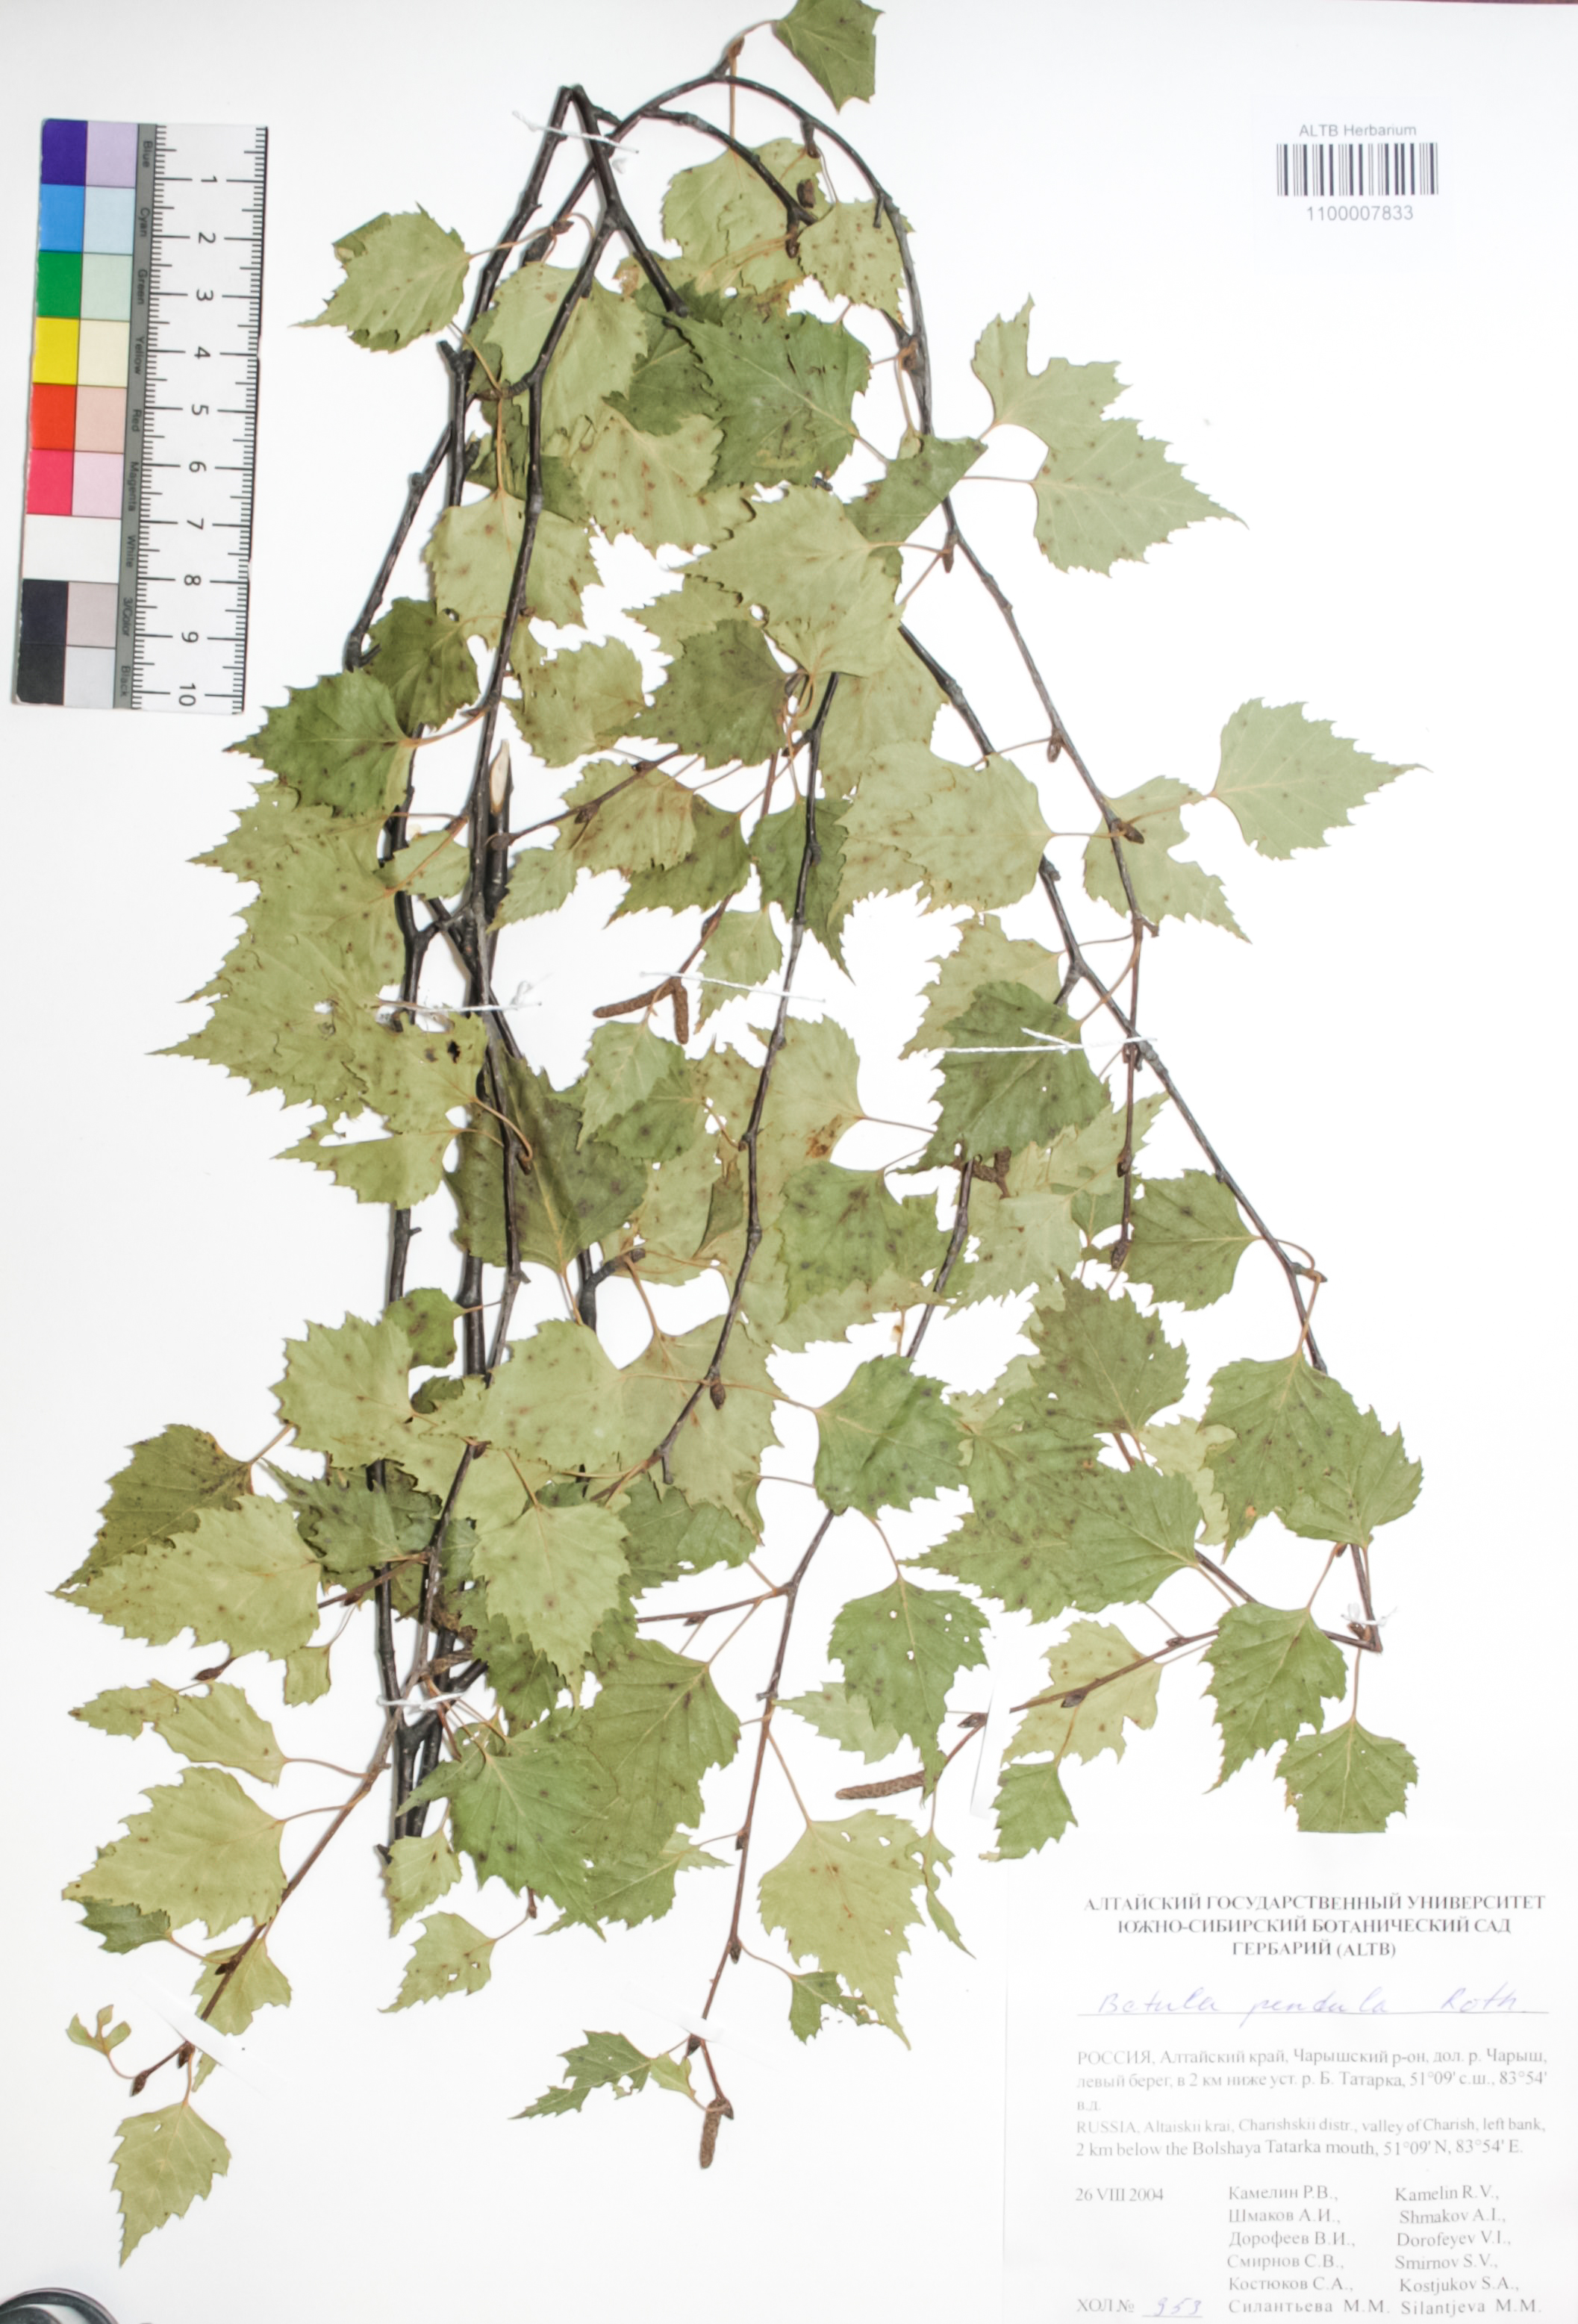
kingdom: Plantae
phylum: Tracheophyta
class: Magnoliopsida
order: Fagales
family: Betulaceae
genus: Betula
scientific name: Betula pendula
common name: Silver birch
